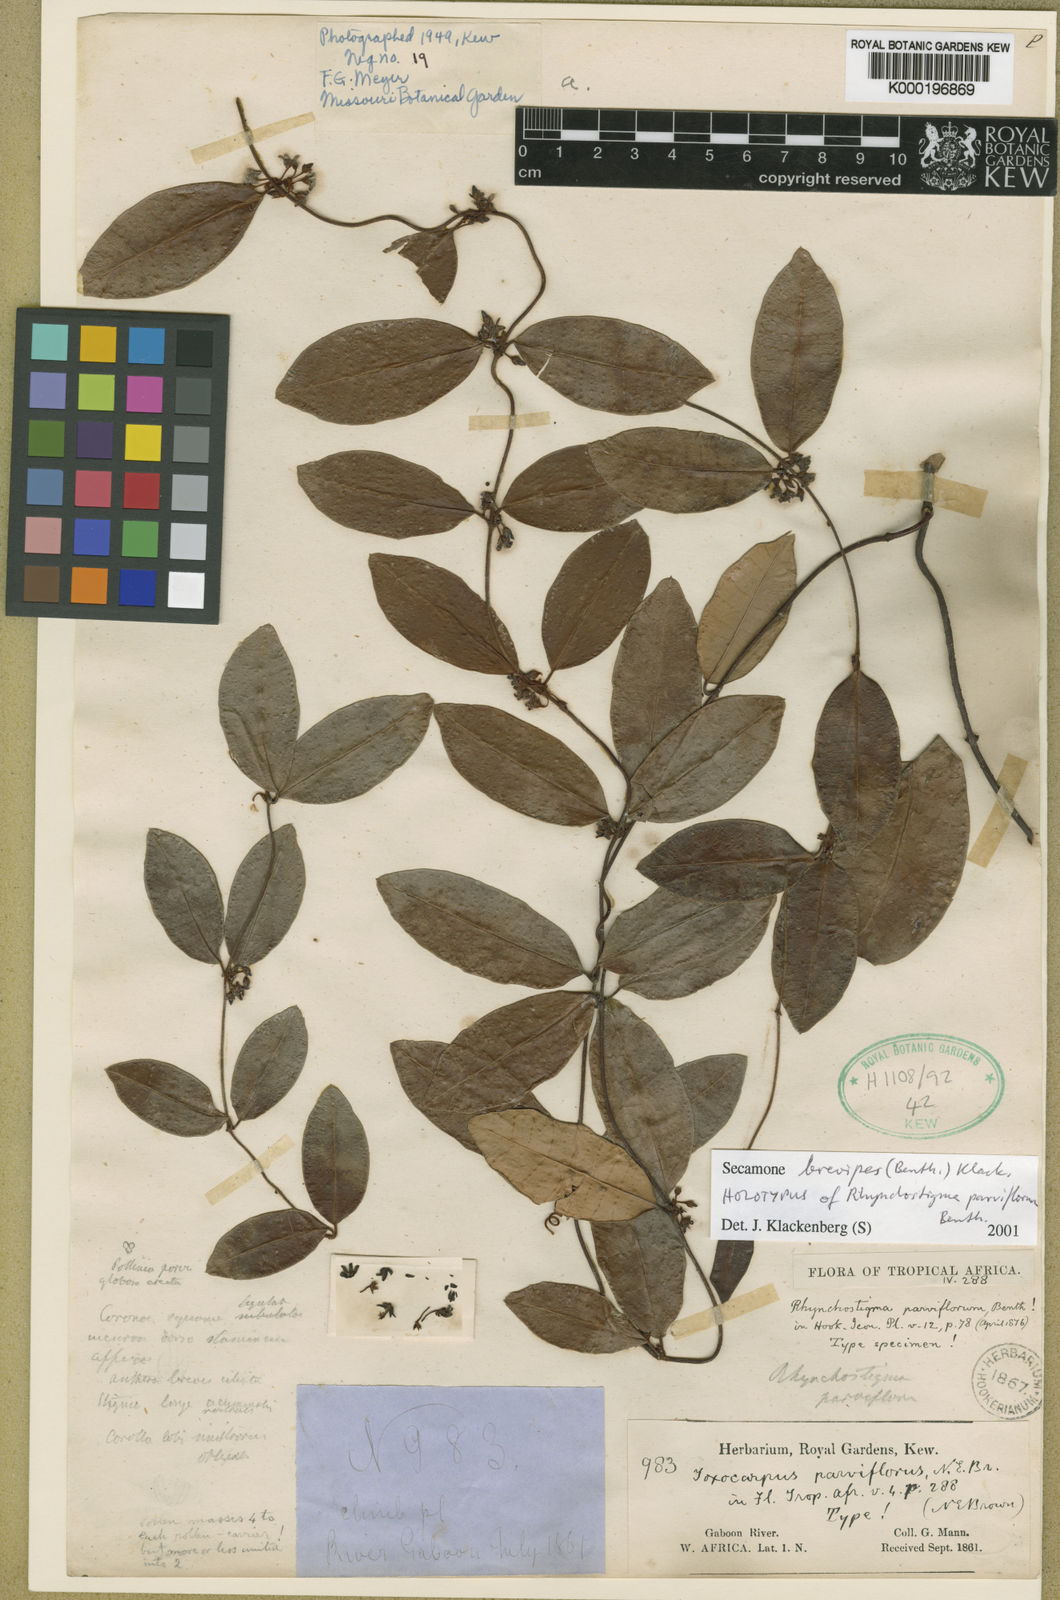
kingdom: Plantae
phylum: Tracheophyta
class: Magnoliopsida
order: Gentianales
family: Apocynaceae
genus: Secamone
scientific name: Secamone brevipes
